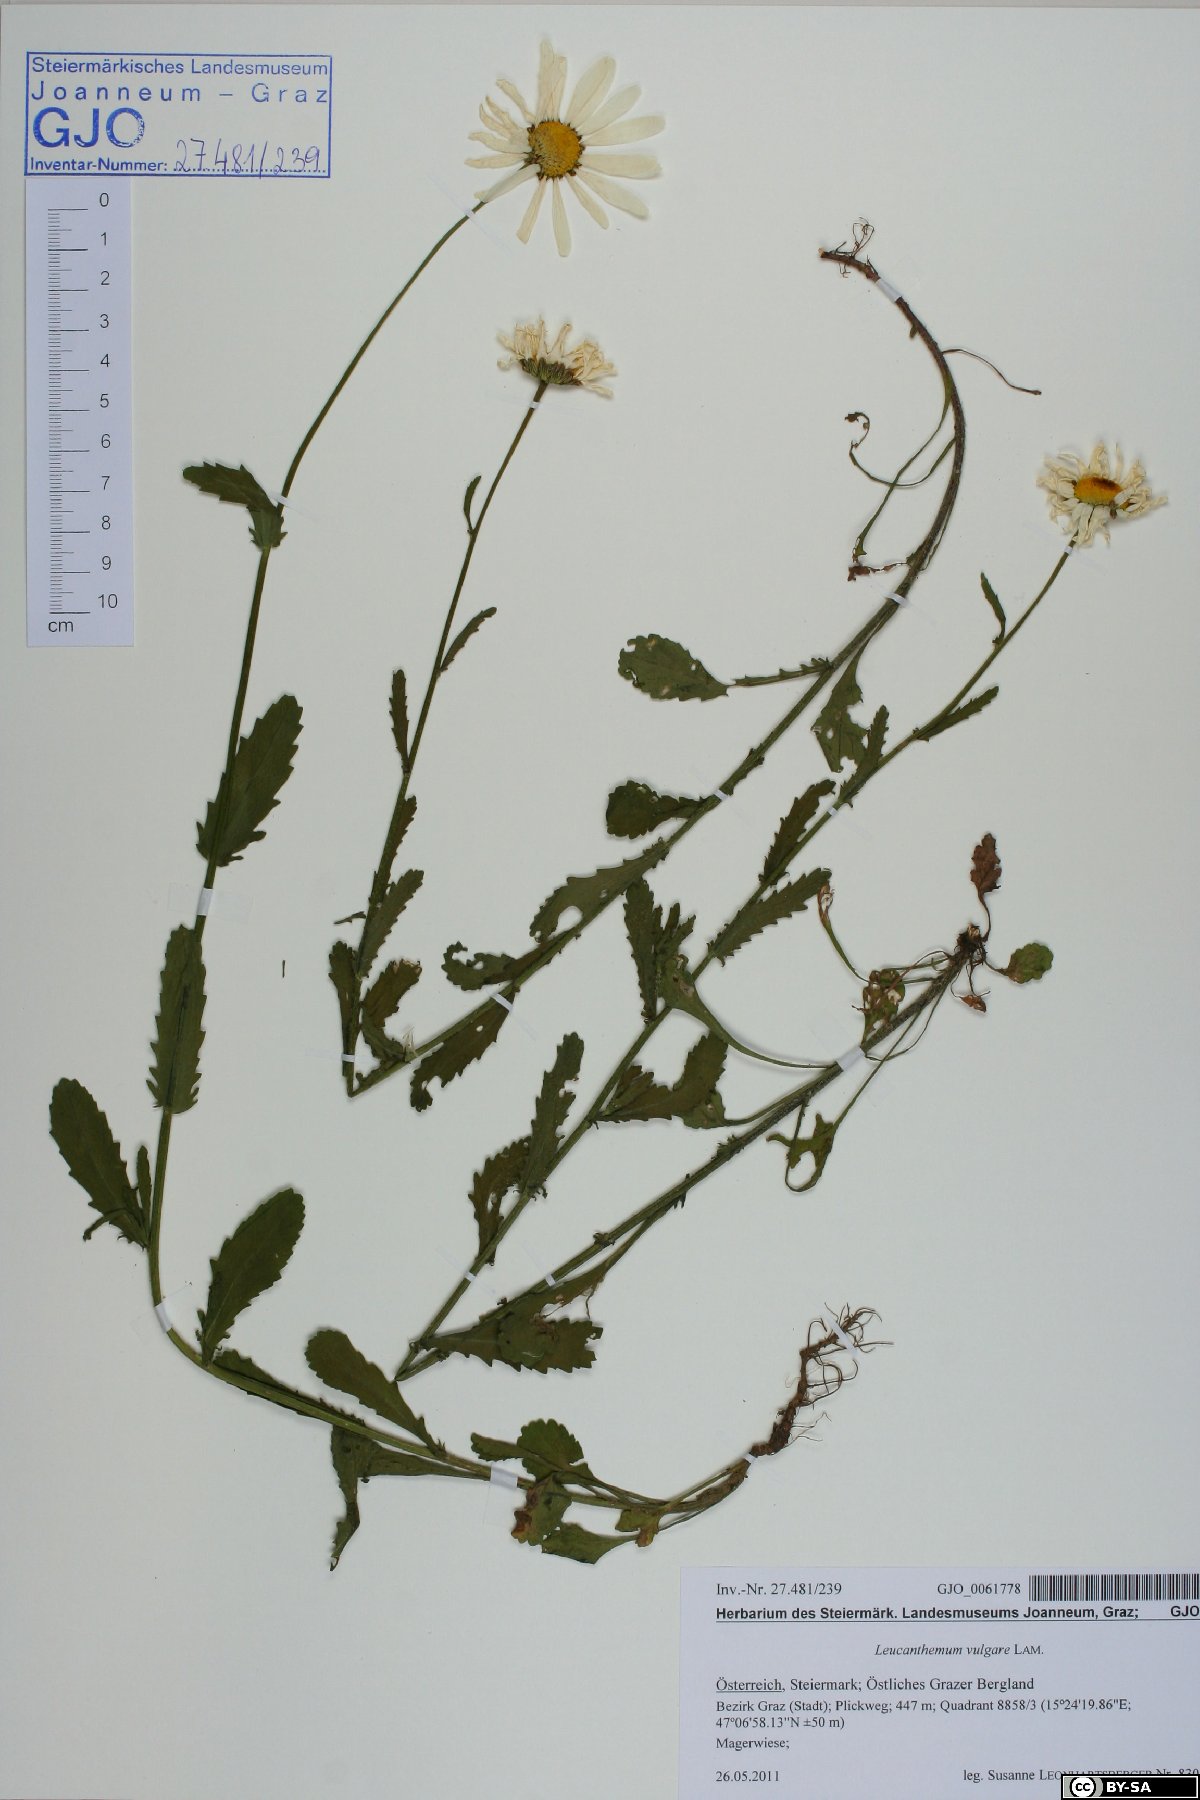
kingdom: Plantae
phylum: Tracheophyta
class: Magnoliopsida
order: Asterales
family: Asteraceae
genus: Leucanthemum
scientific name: Leucanthemum vulgare
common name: Oxeye daisy
